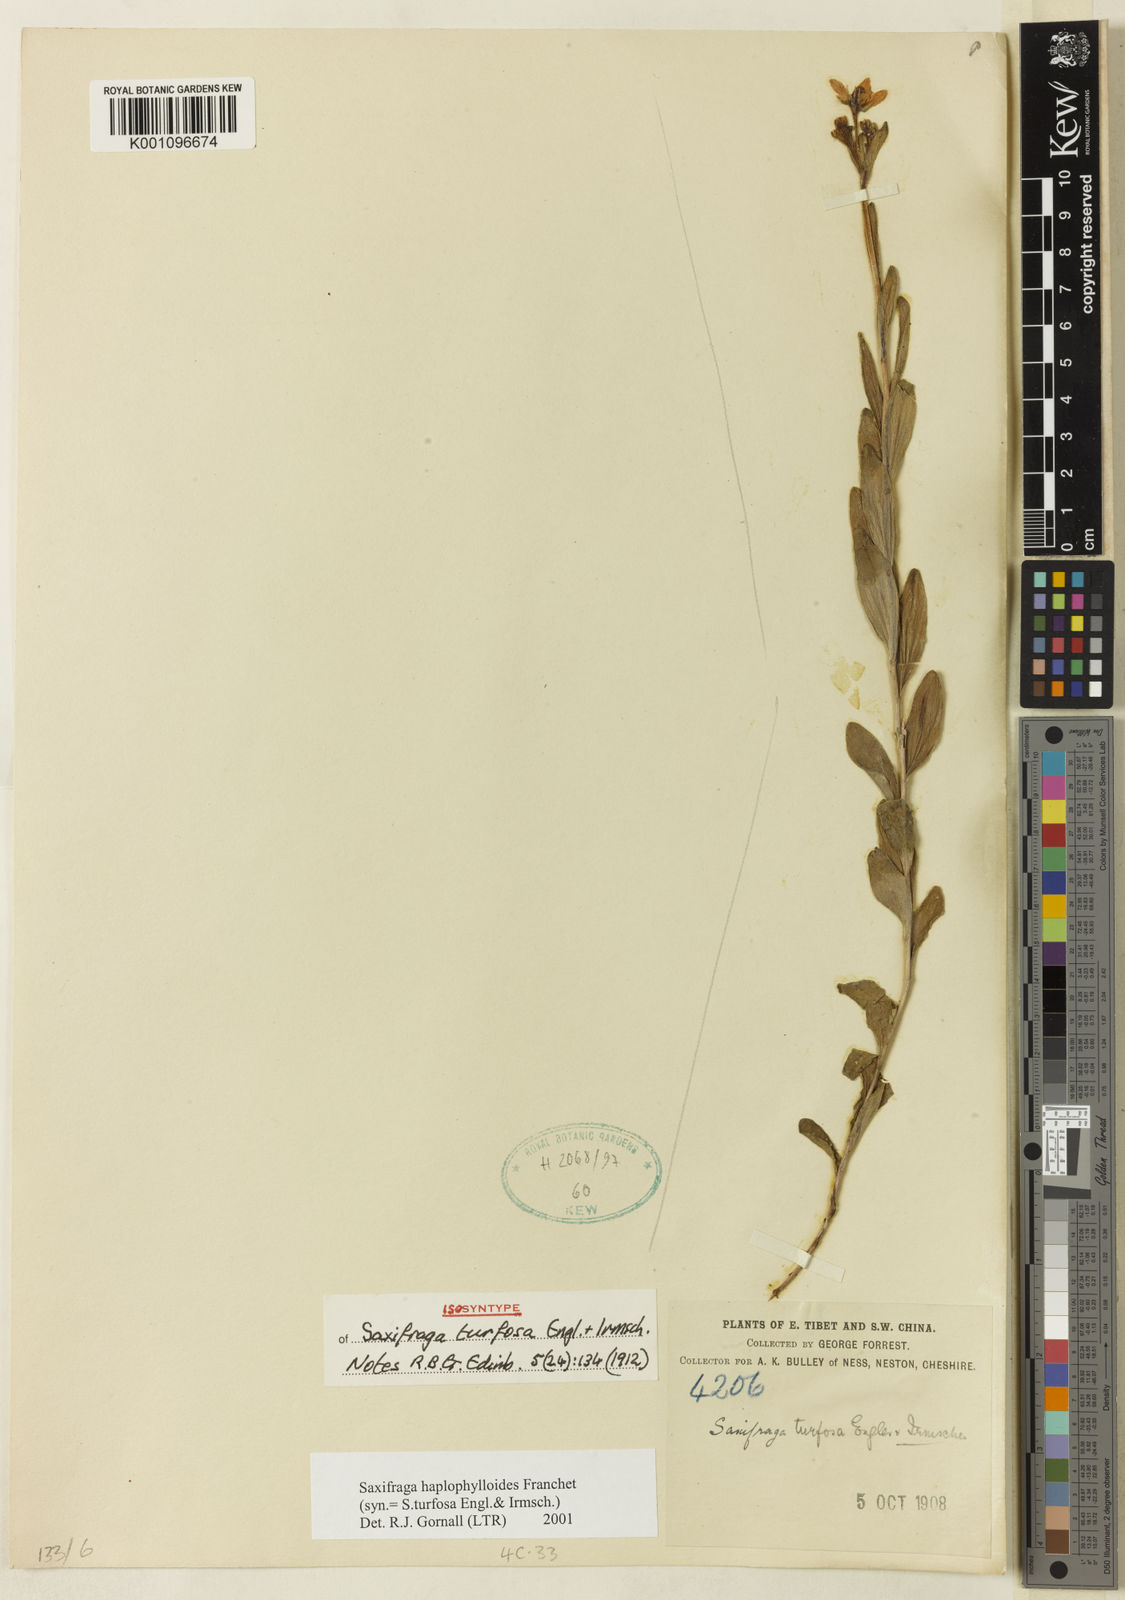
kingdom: Plantae
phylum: Tracheophyta
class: Magnoliopsida
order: Saxifragales
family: Saxifragaceae
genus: Saxifraga
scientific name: Saxifraga
